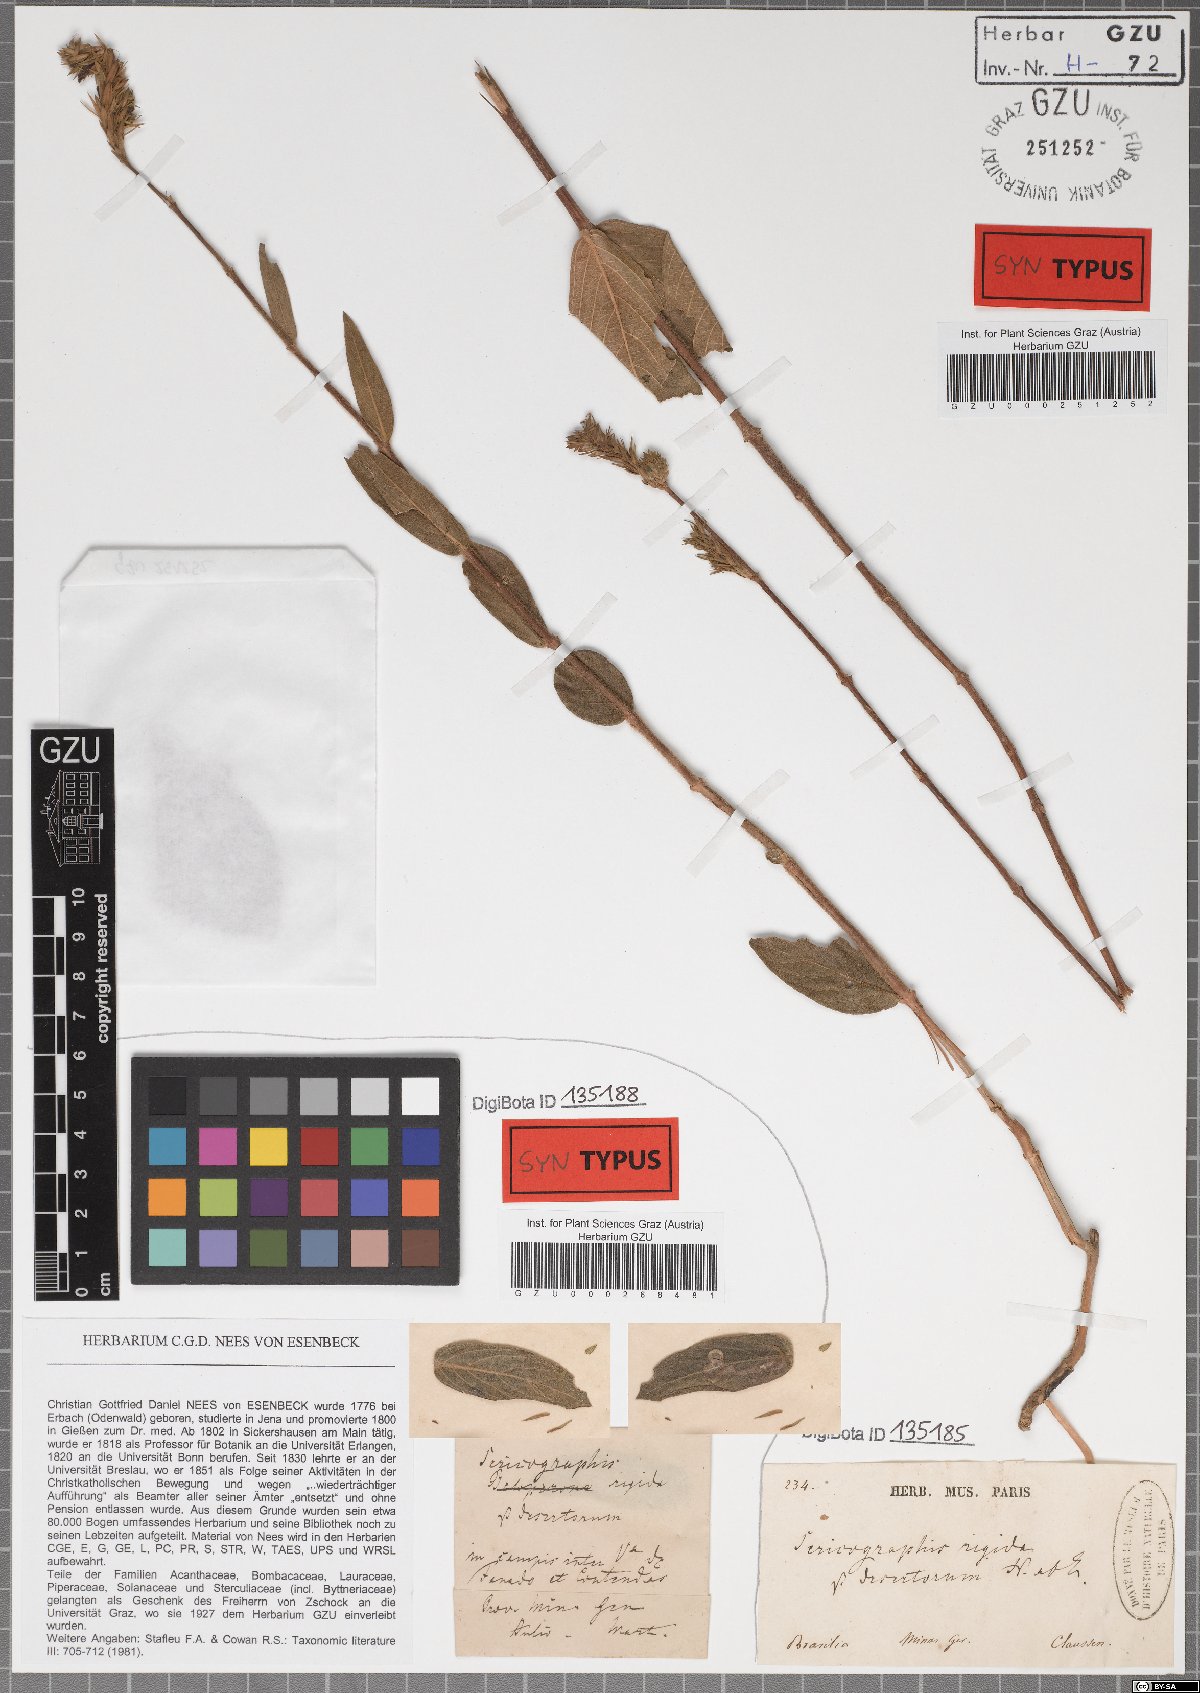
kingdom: Plantae
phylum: Tracheophyta
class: Magnoliopsida
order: Lamiales
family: Acanthaceae
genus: Dianthera
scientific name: Dianthera rigida
